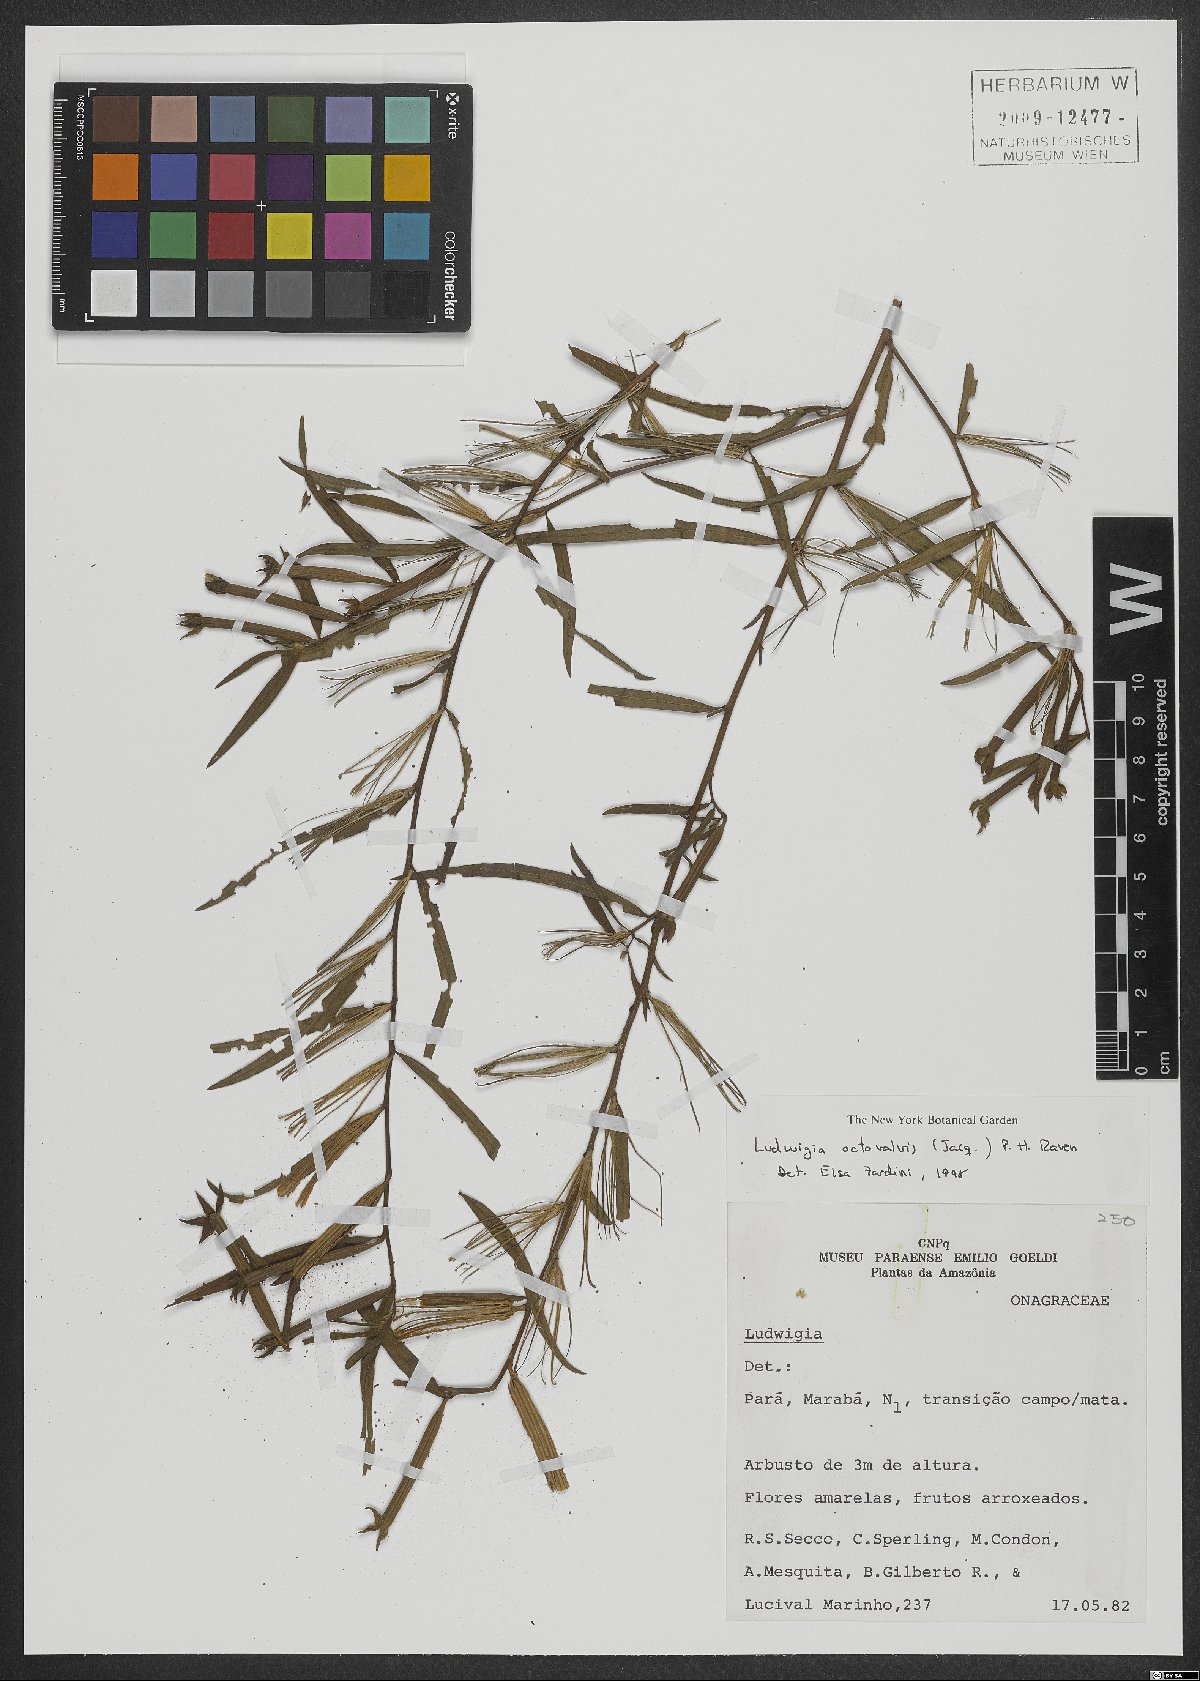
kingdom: Plantae
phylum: Tracheophyta
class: Magnoliopsida
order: Myrtales
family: Onagraceae
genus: Ludwigia
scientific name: Ludwigia octovalvis
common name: Water-primrose
